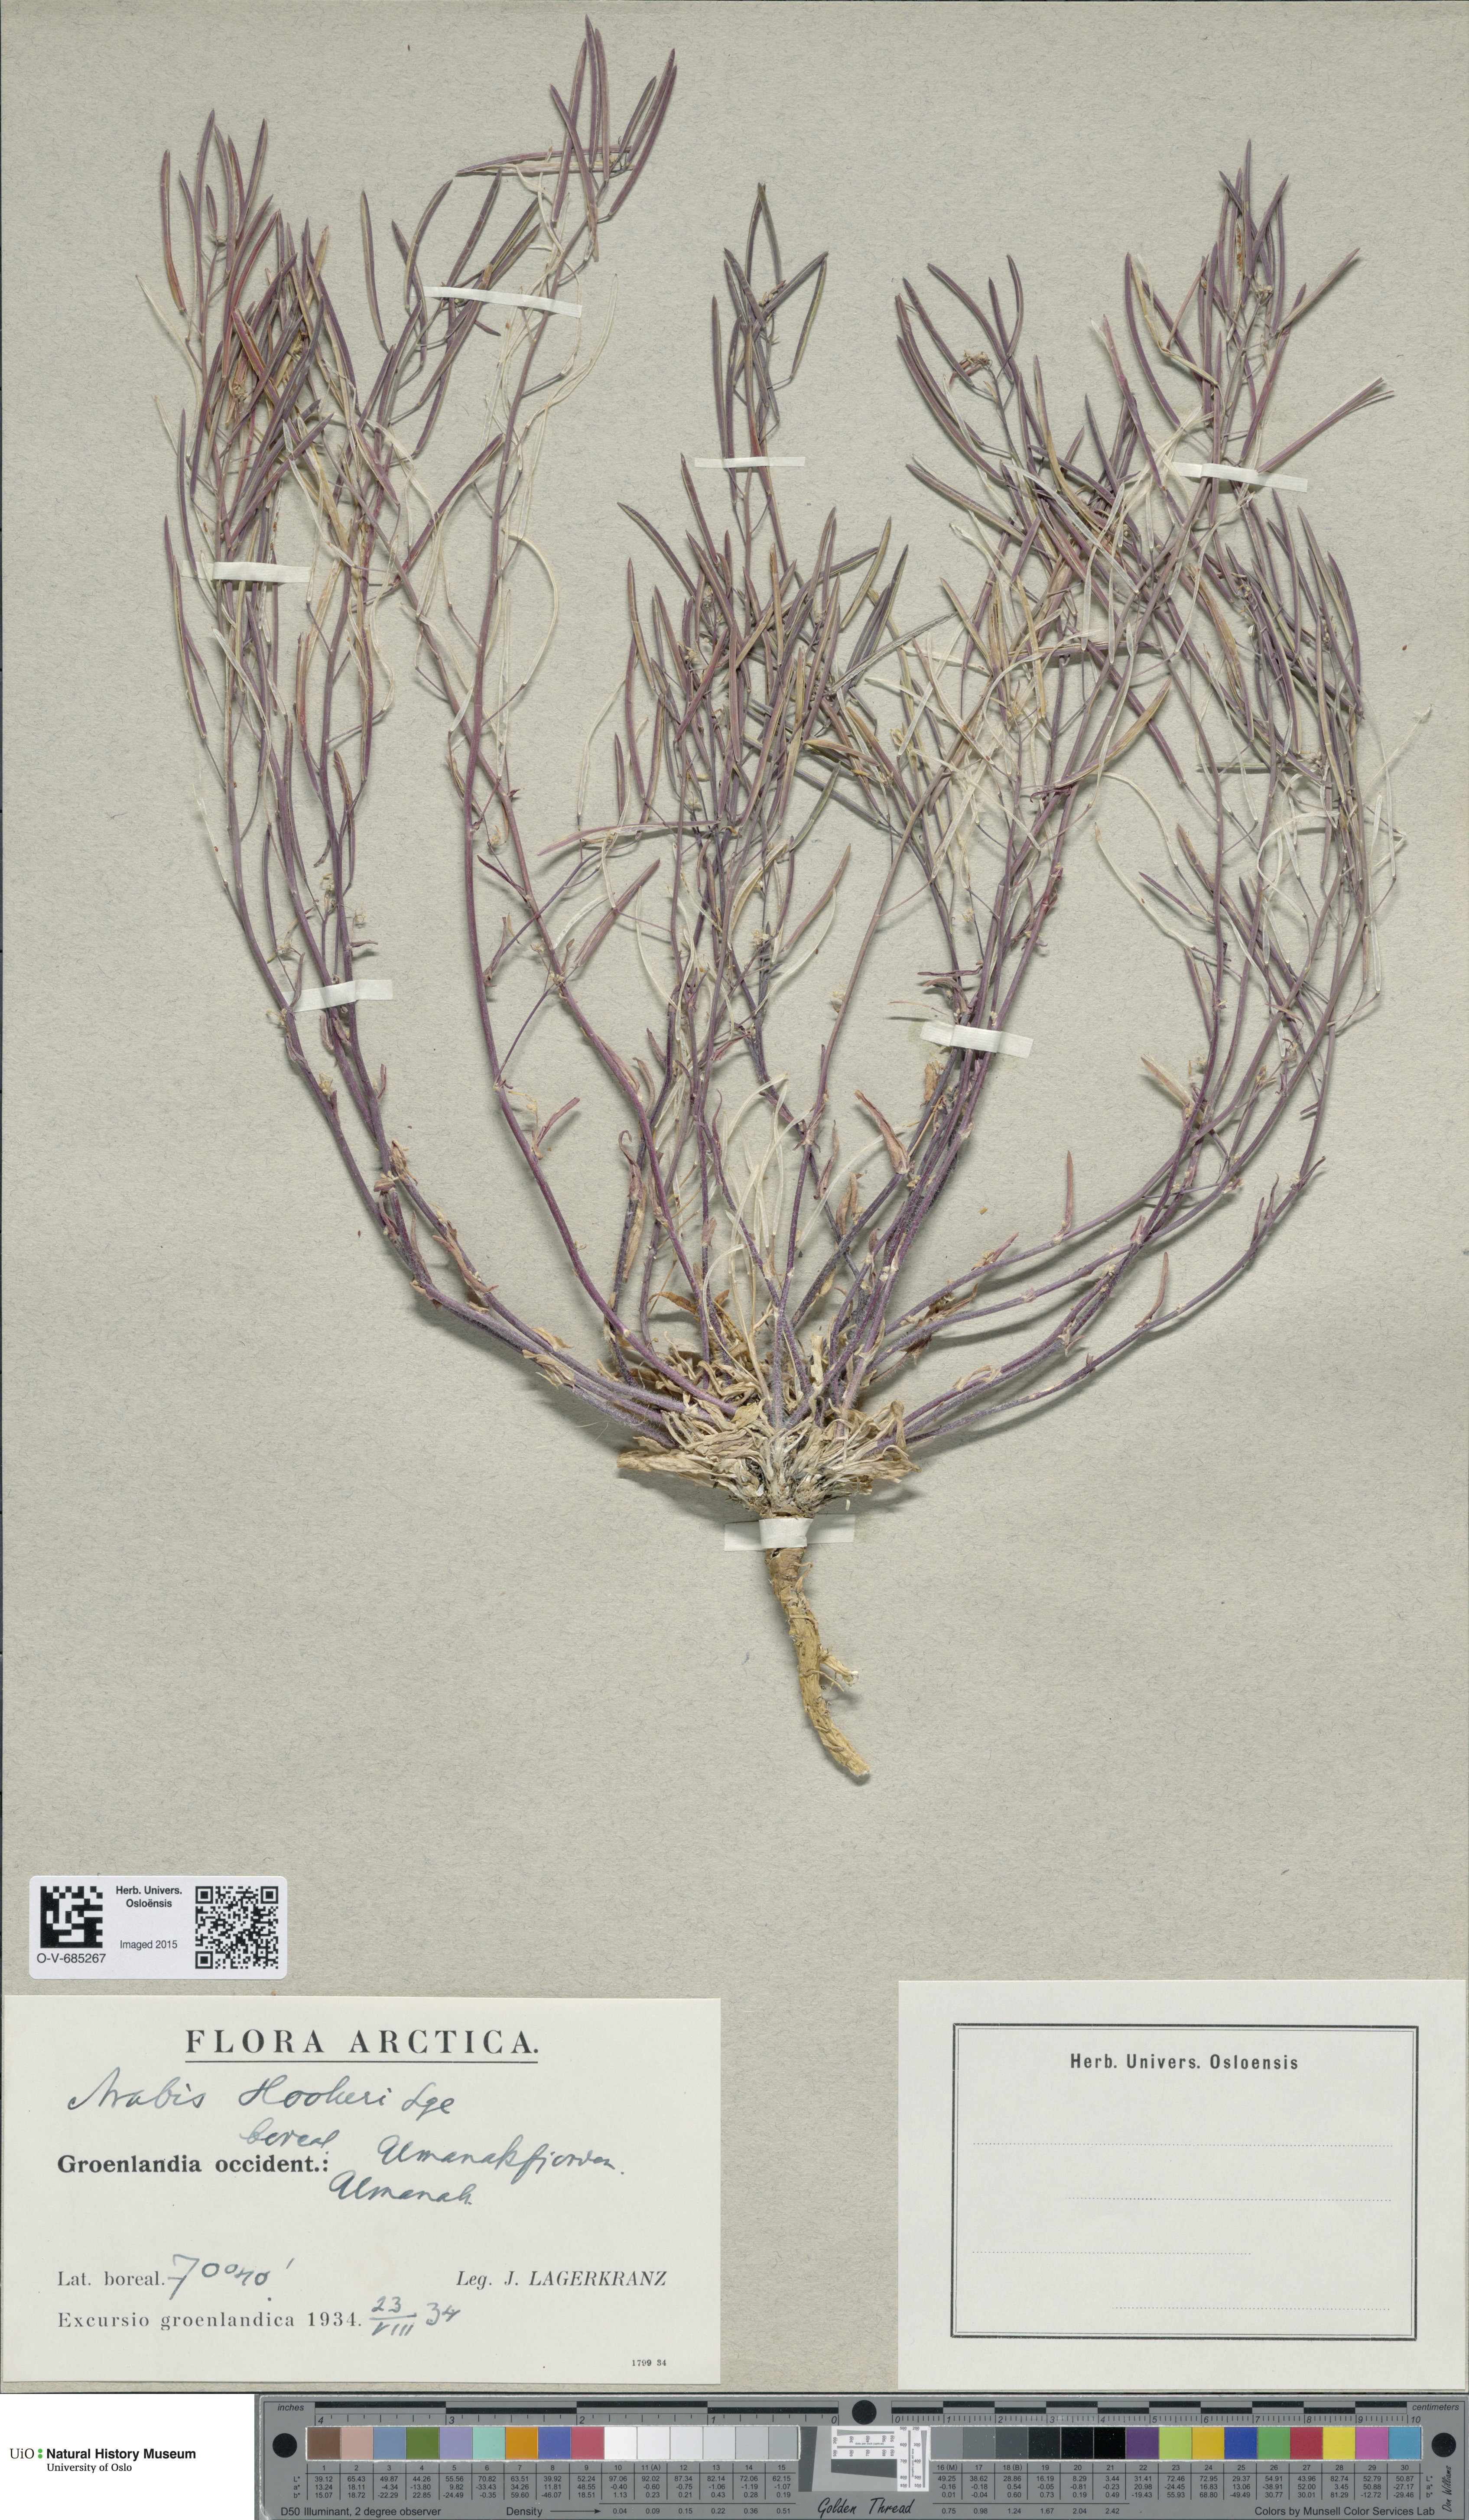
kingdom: Plantae
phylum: Tracheophyta
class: Magnoliopsida
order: Brassicales
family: Brassicaceae
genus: Crucihimalaya
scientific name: Crucihimalaya bursifolia
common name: Soft fissurewort
